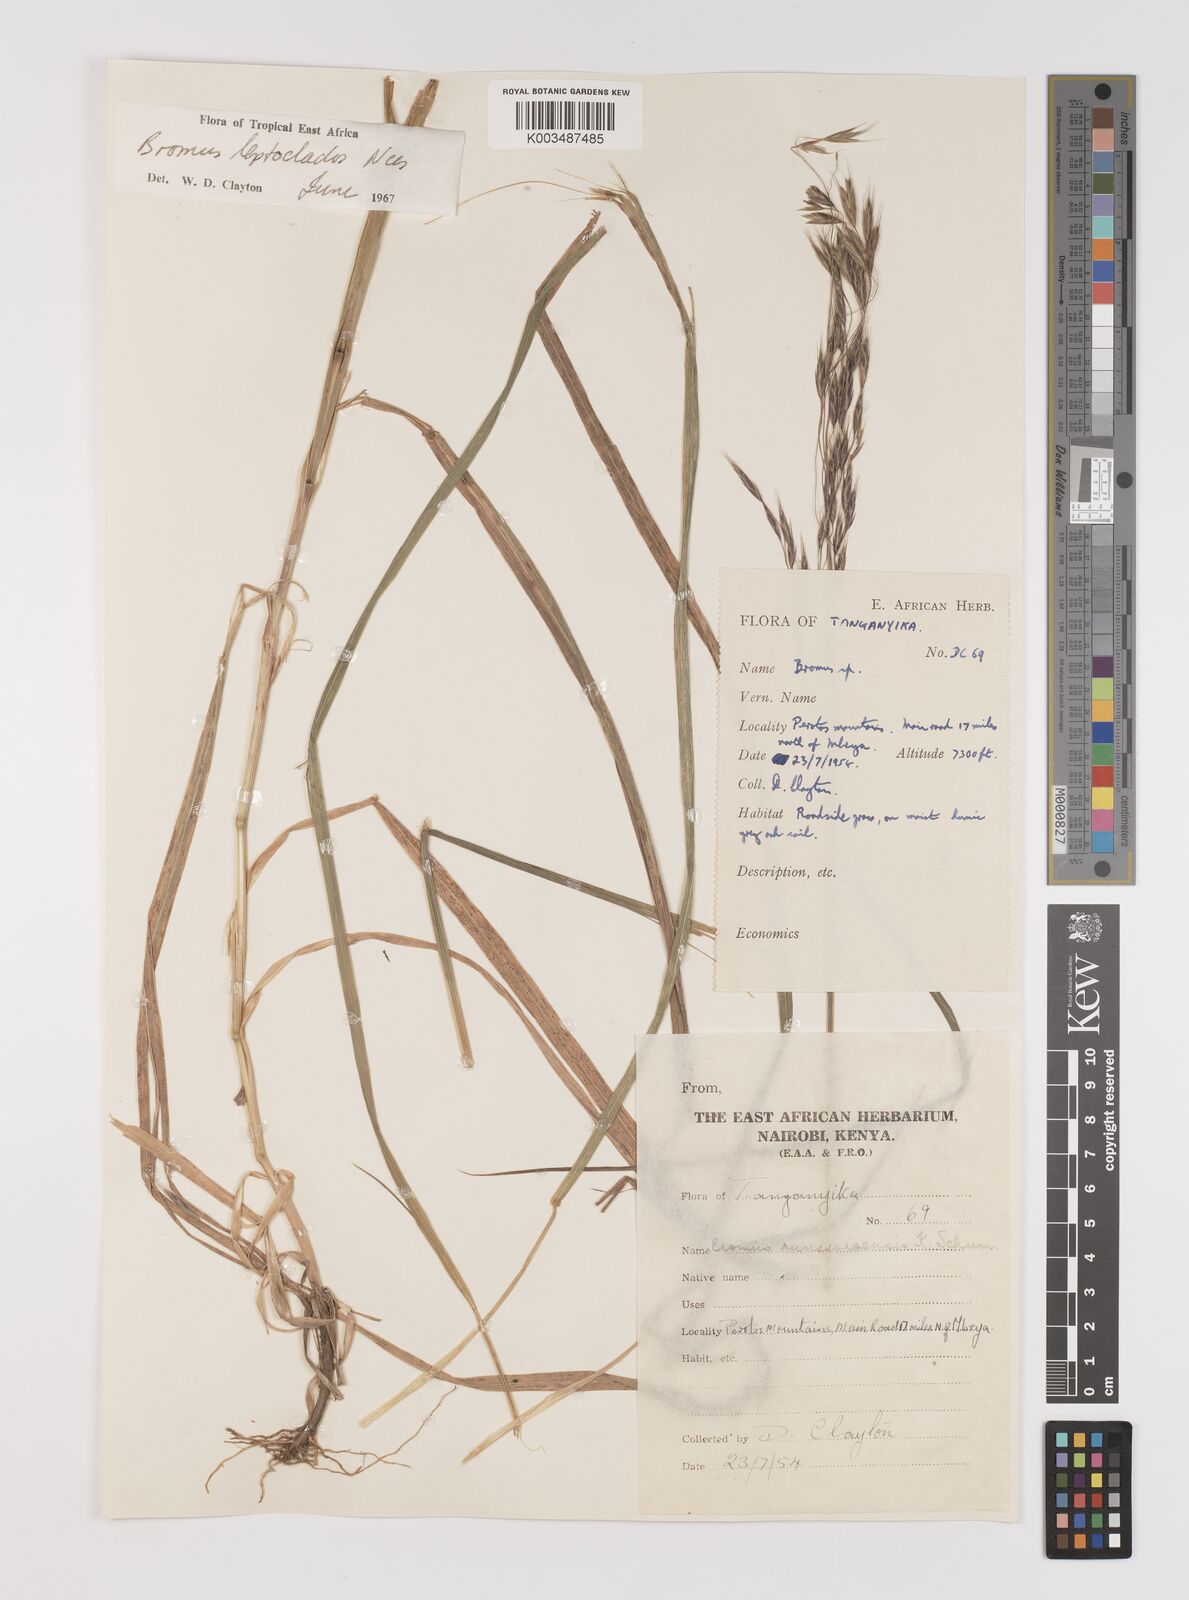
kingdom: Plantae
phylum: Tracheophyta
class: Liliopsida
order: Poales
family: Poaceae
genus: Bromus
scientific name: Bromus leptoclados
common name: Mountain bromegrass
